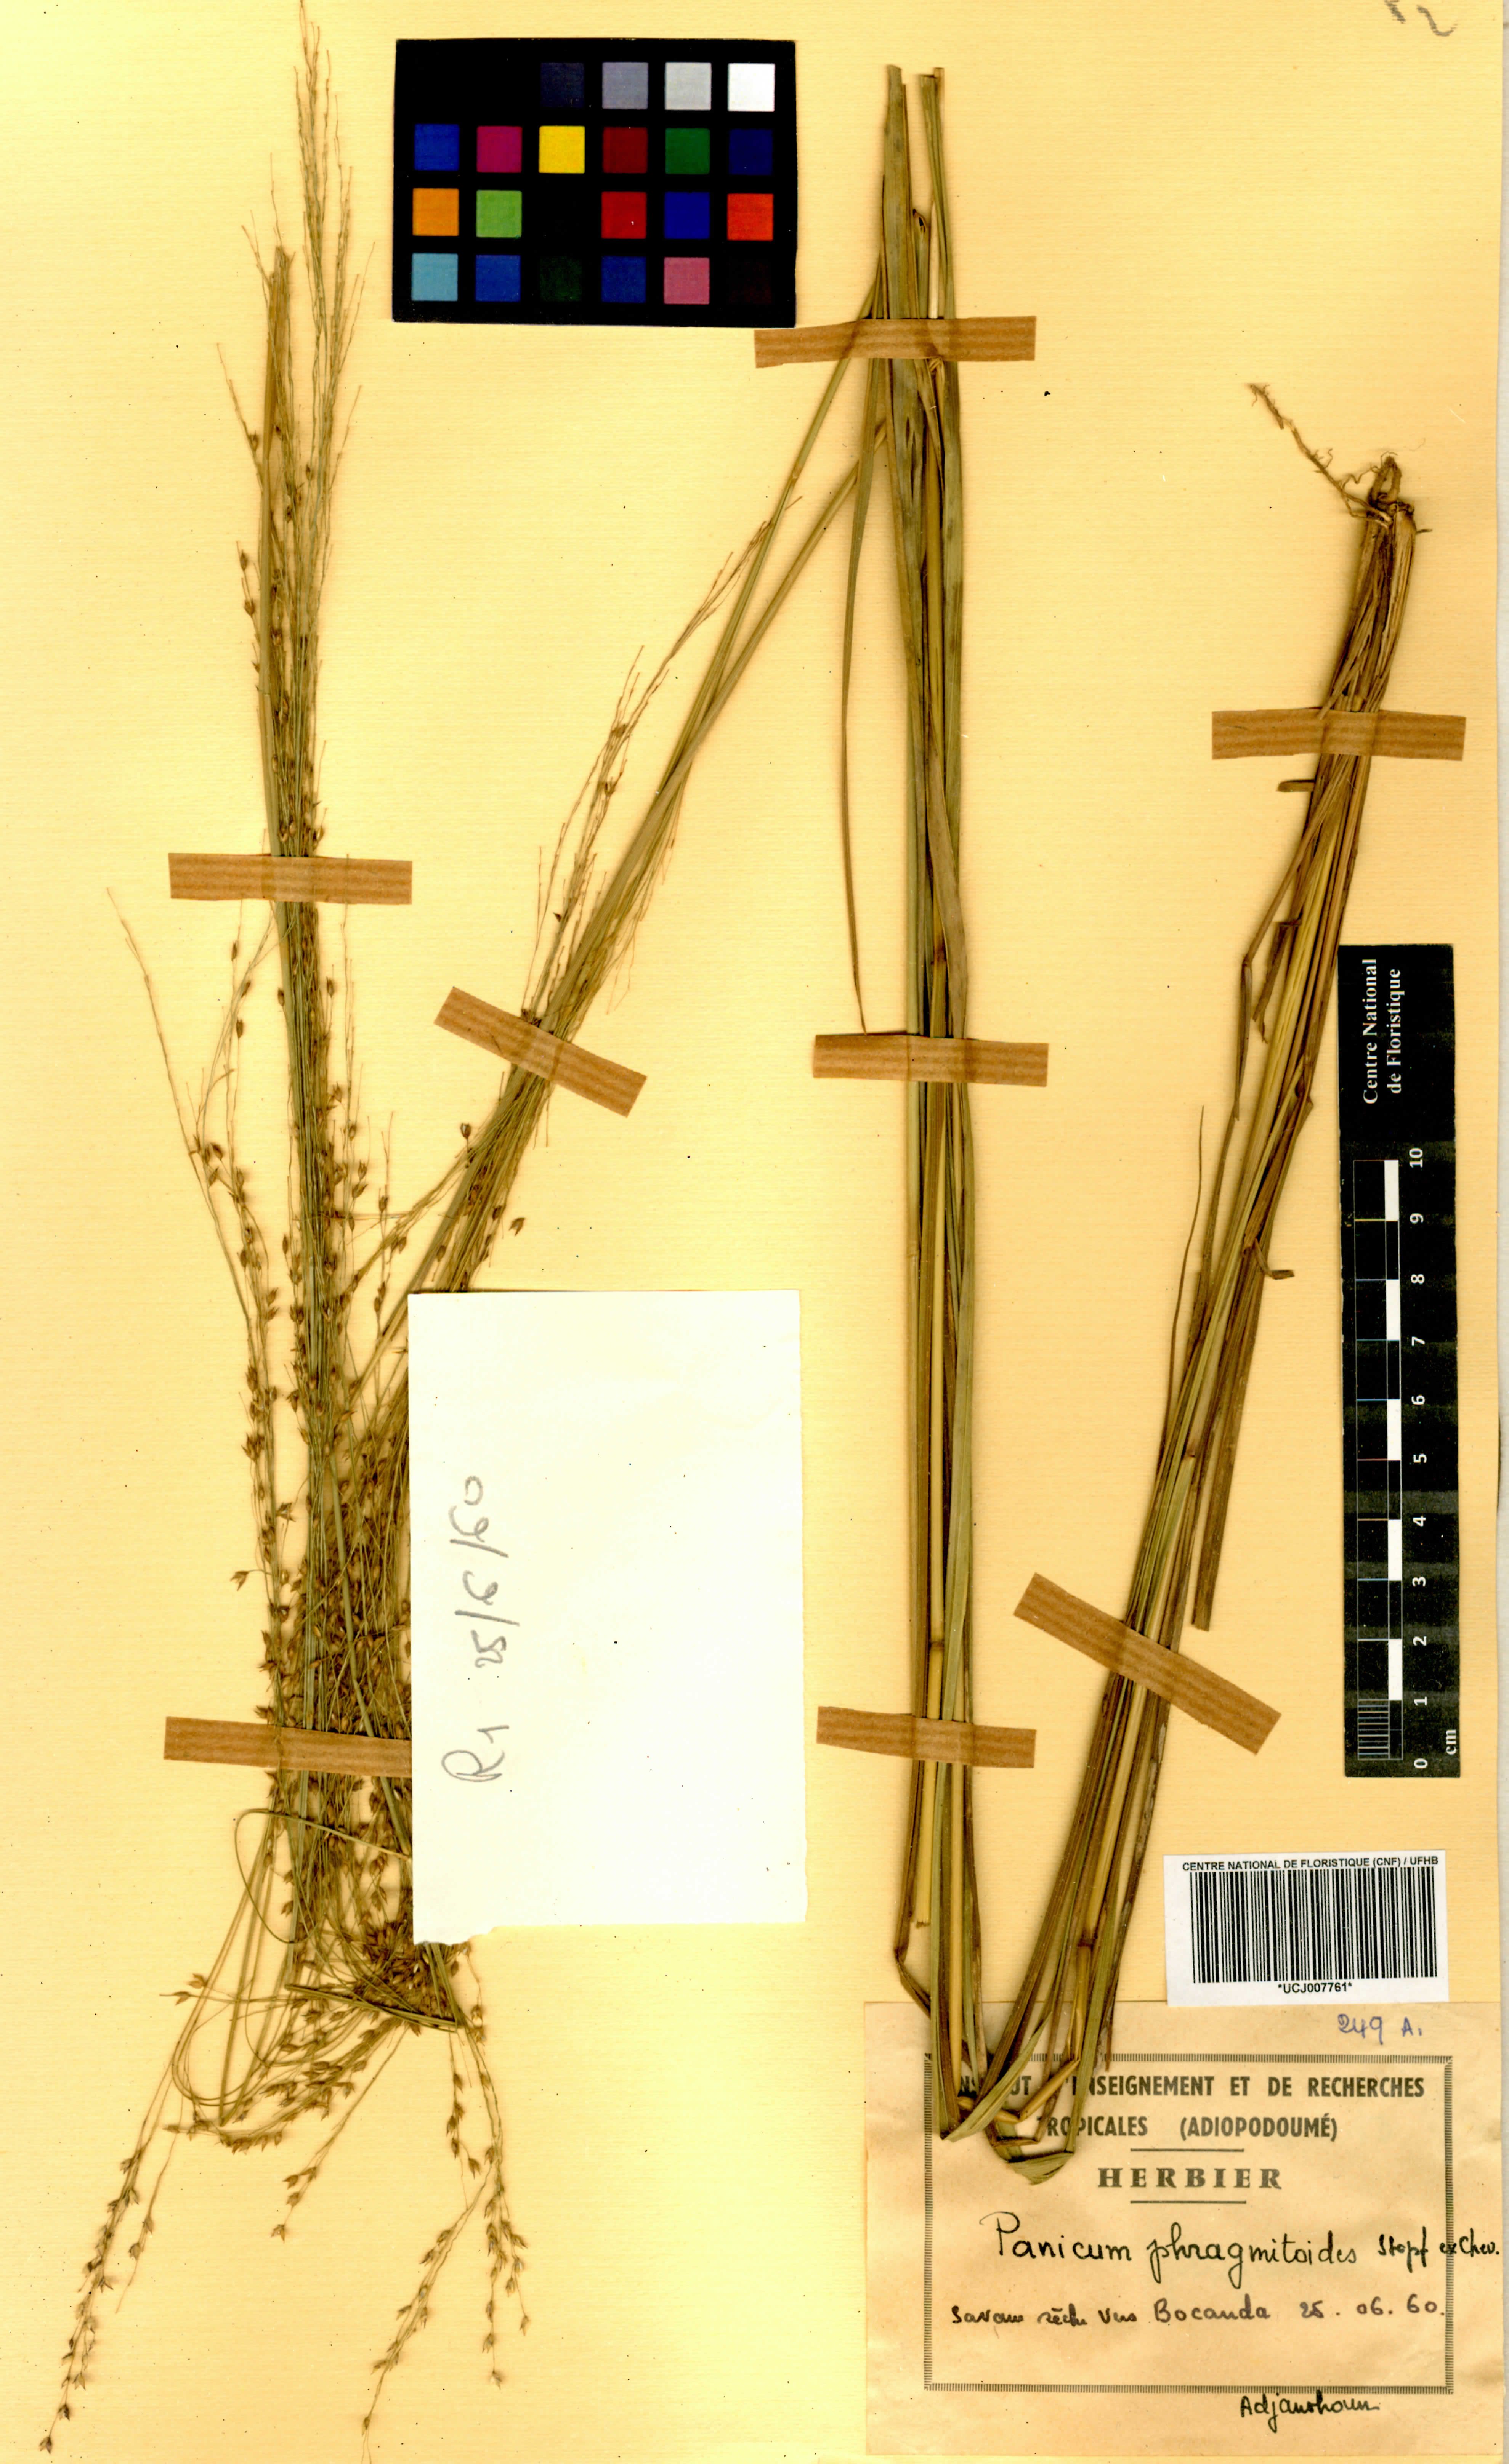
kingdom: Plantae
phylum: Tracheophyta
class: Liliopsida
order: Poales
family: Poaceae
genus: Panicum
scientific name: Panicum phragmitoides
